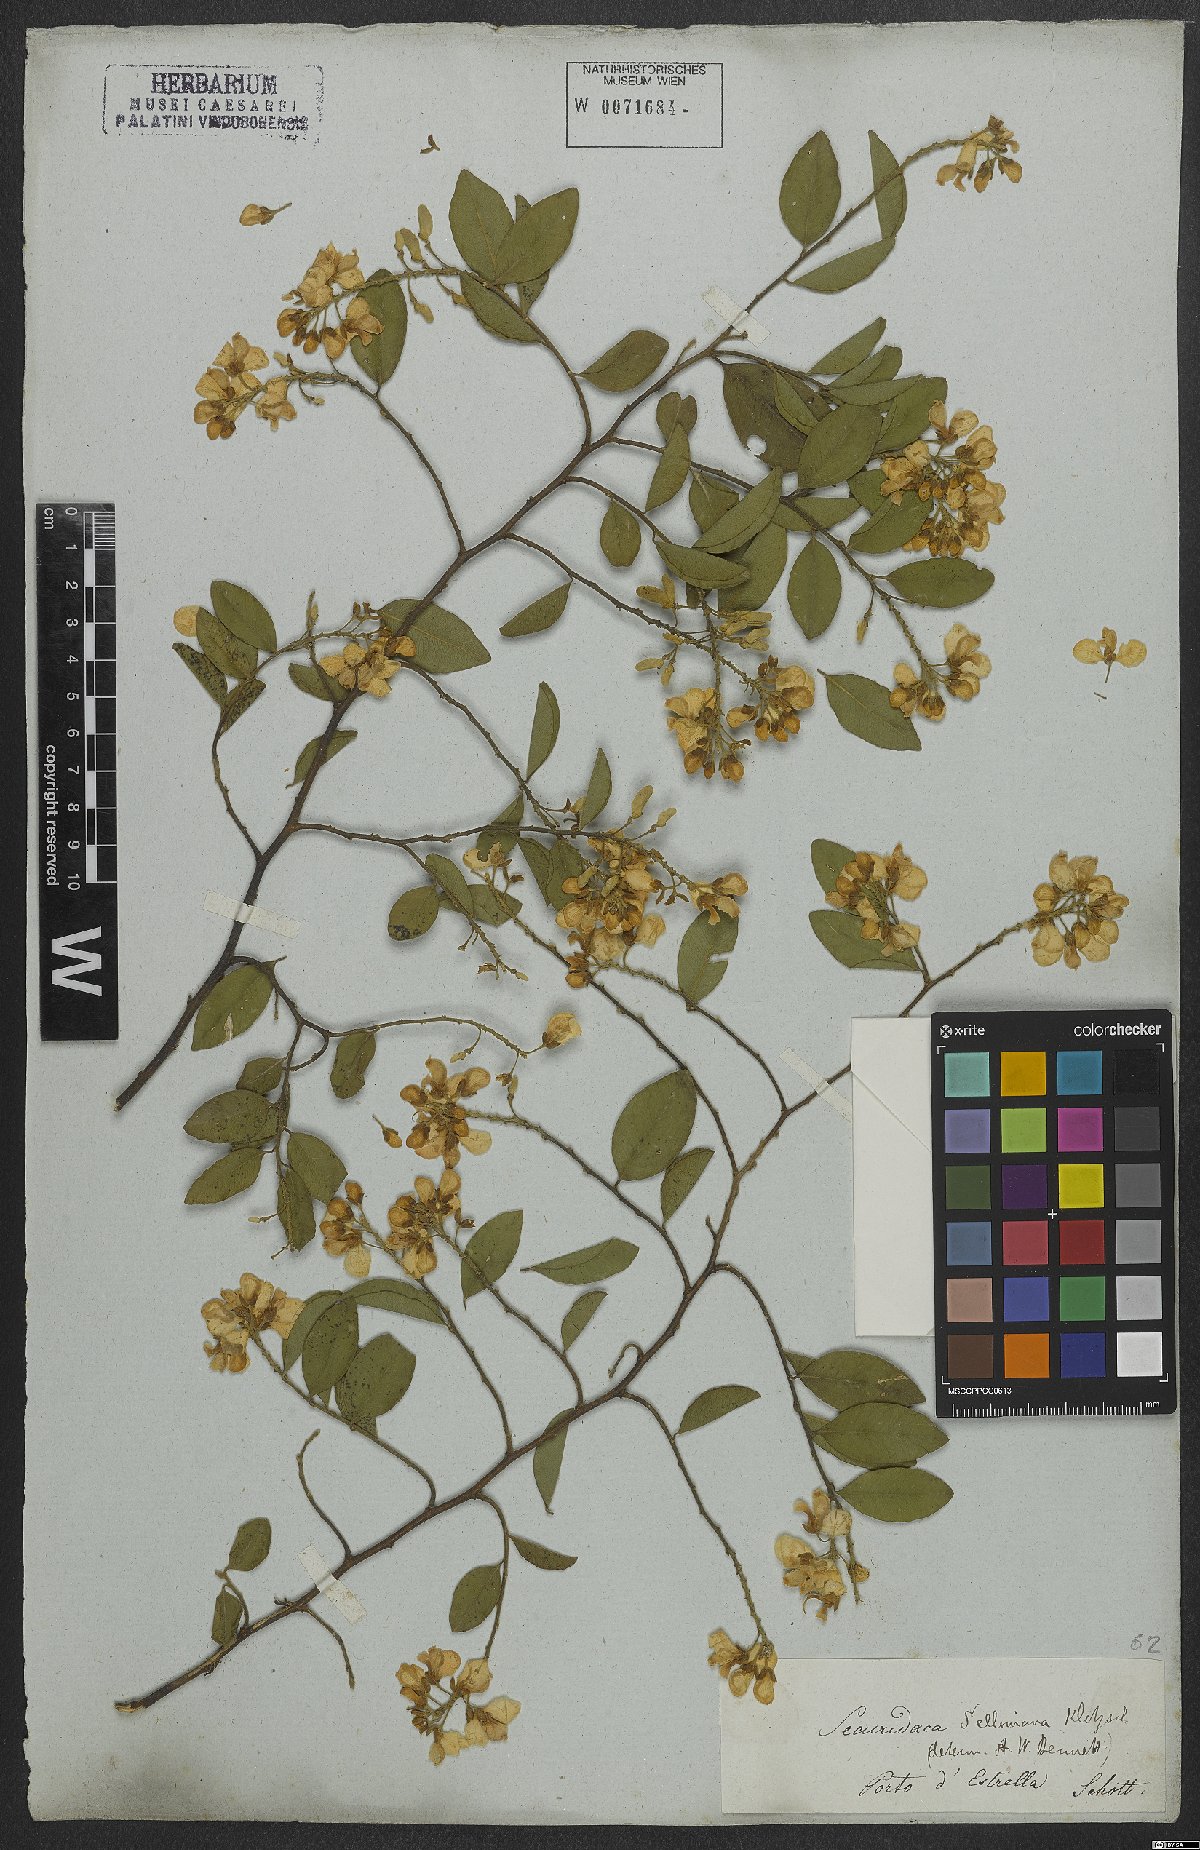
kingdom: Plantae
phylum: Tracheophyta
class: Magnoliopsida
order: Fabales
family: Polygalaceae
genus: Securidaca
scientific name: Securidaca lanceolata
